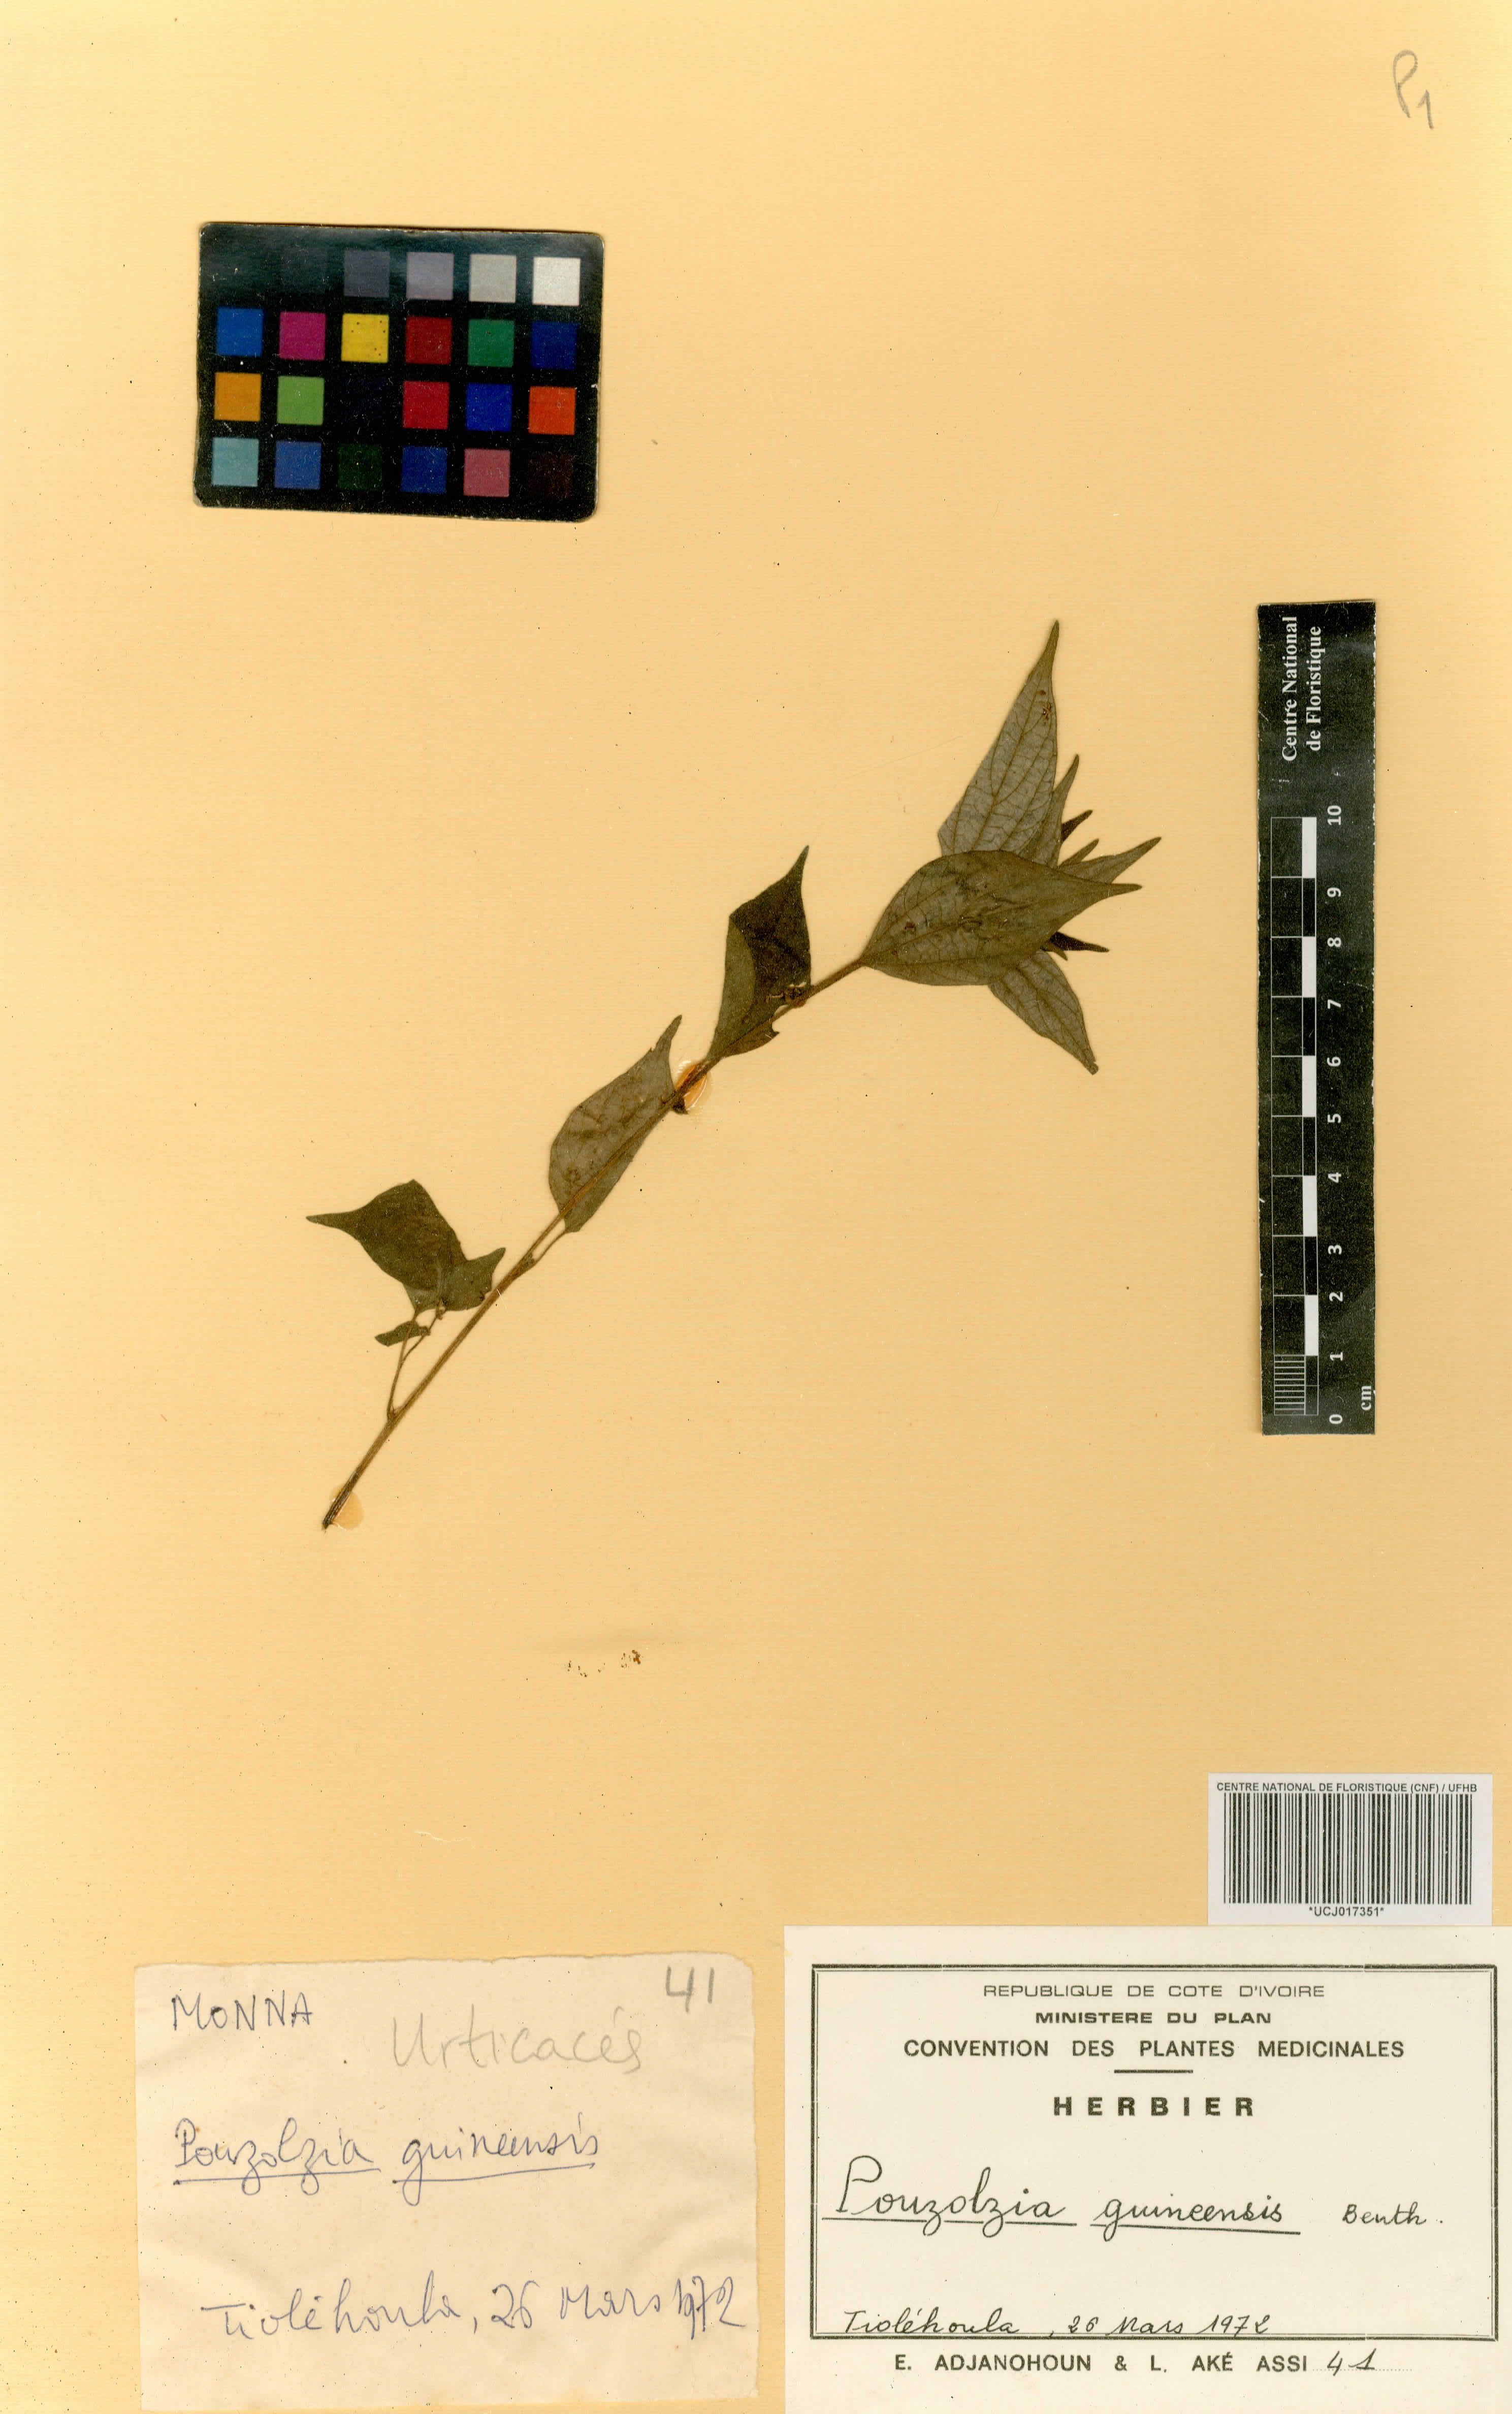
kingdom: Plantae
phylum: Tracheophyta
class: Magnoliopsida
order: Rosales
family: Urticaceae
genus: Pouzolzia
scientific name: Pouzolzia guineensis
